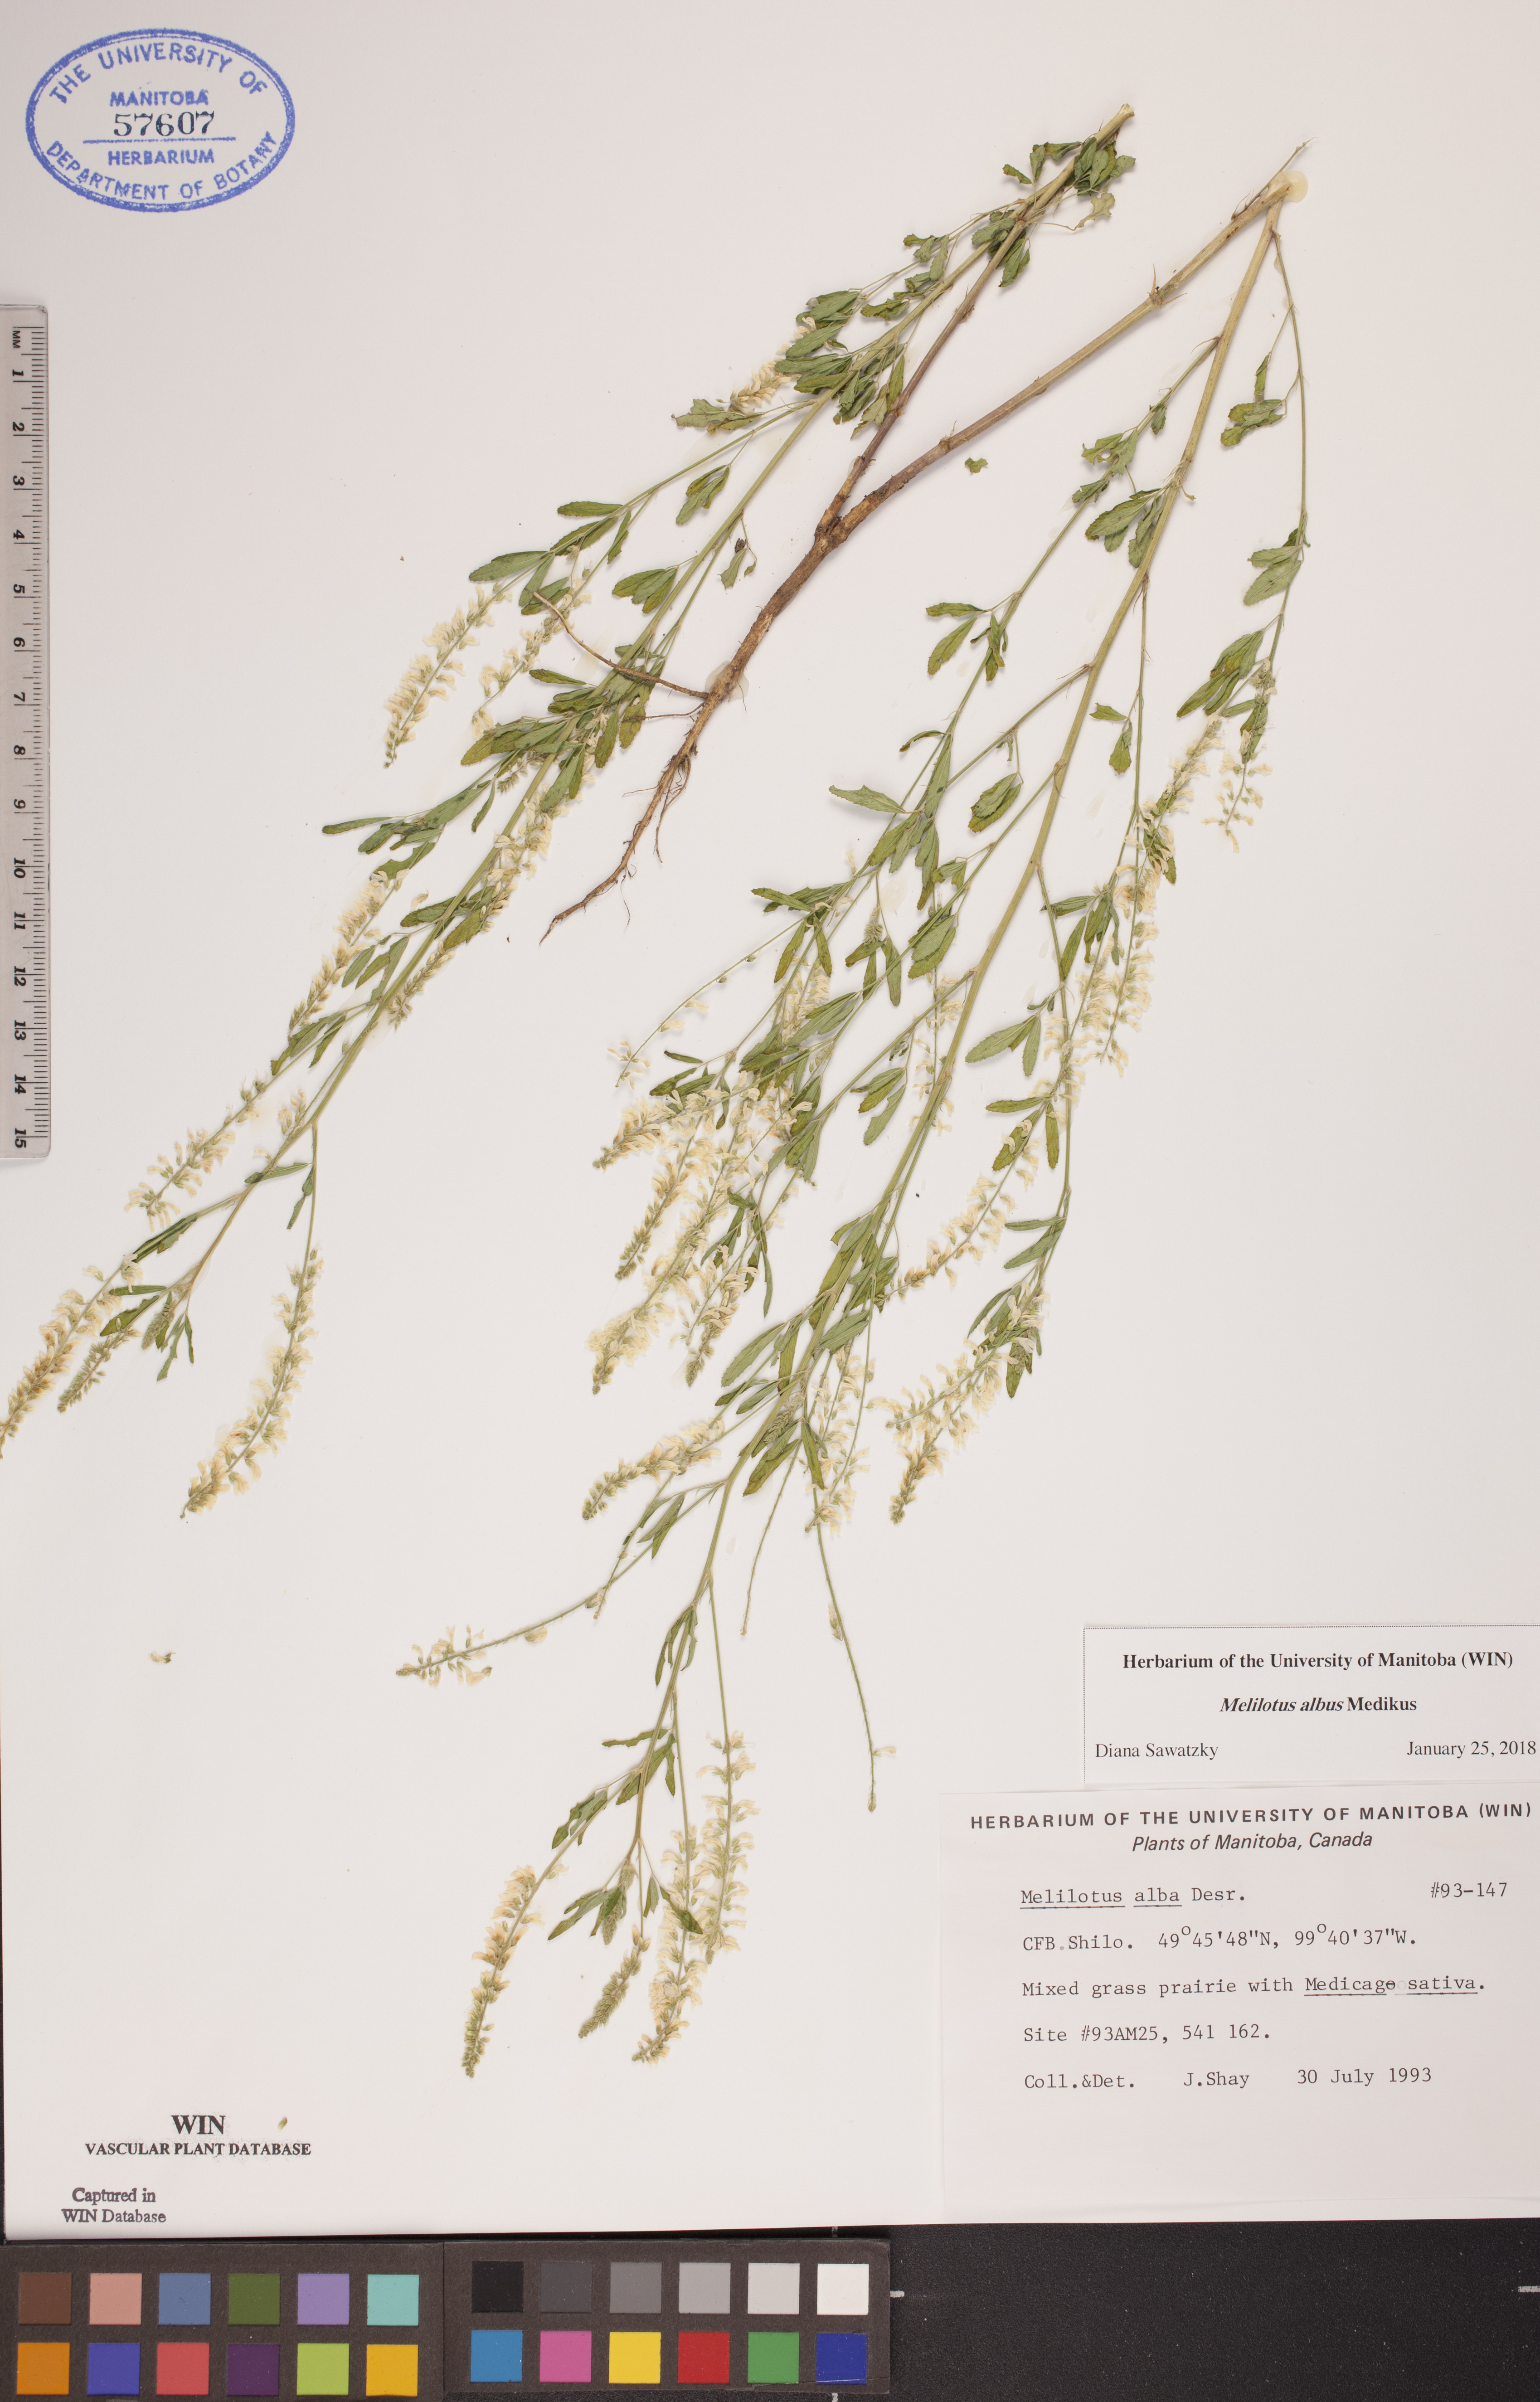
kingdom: Plantae
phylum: Tracheophyta
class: Magnoliopsida
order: Fabales
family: Fabaceae
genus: Melilotus
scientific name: Melilotus albus
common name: White melilot
